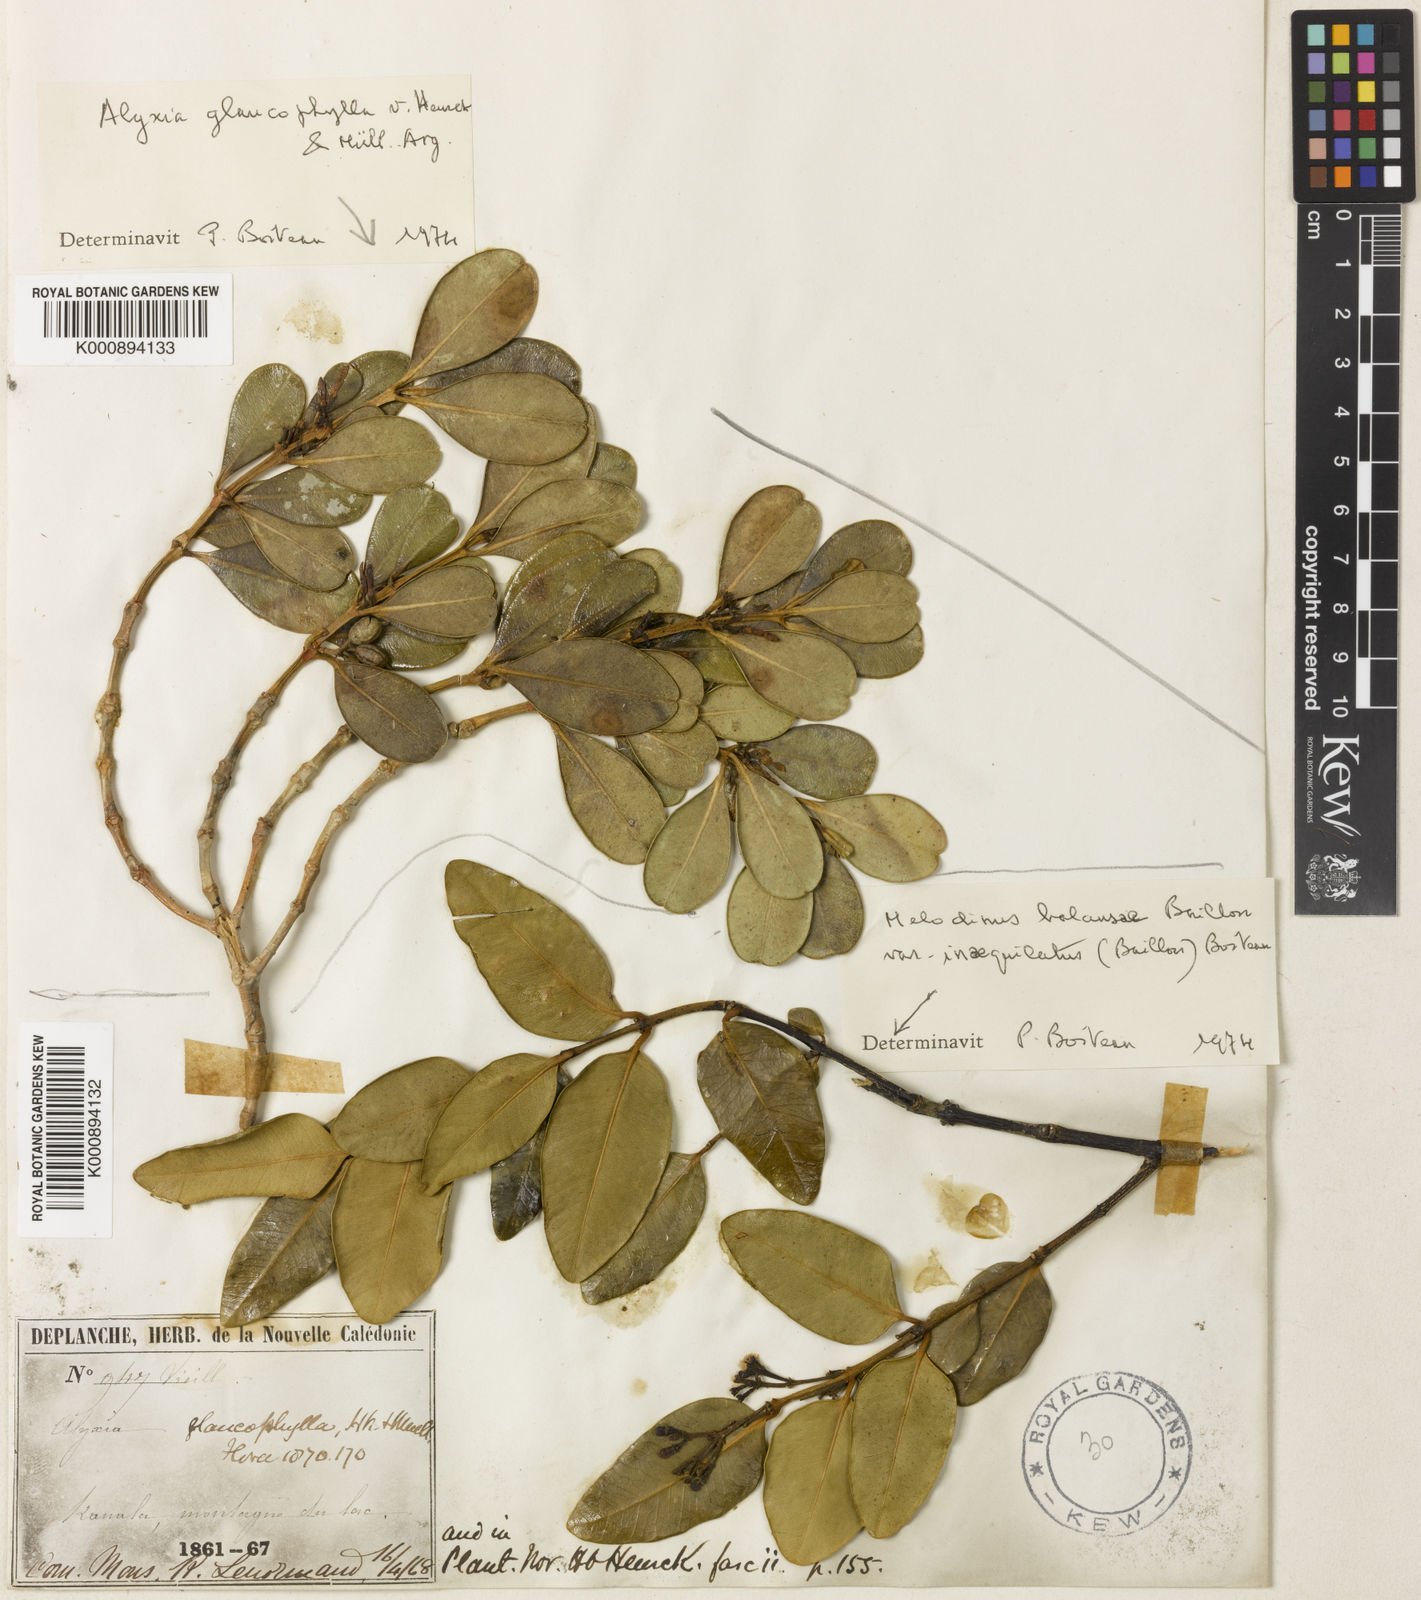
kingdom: Plantae
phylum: Tracheophyta
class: Magnoliopsida
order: Gentianales
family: Apocynaceae
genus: Alyxia
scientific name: Alyxia
